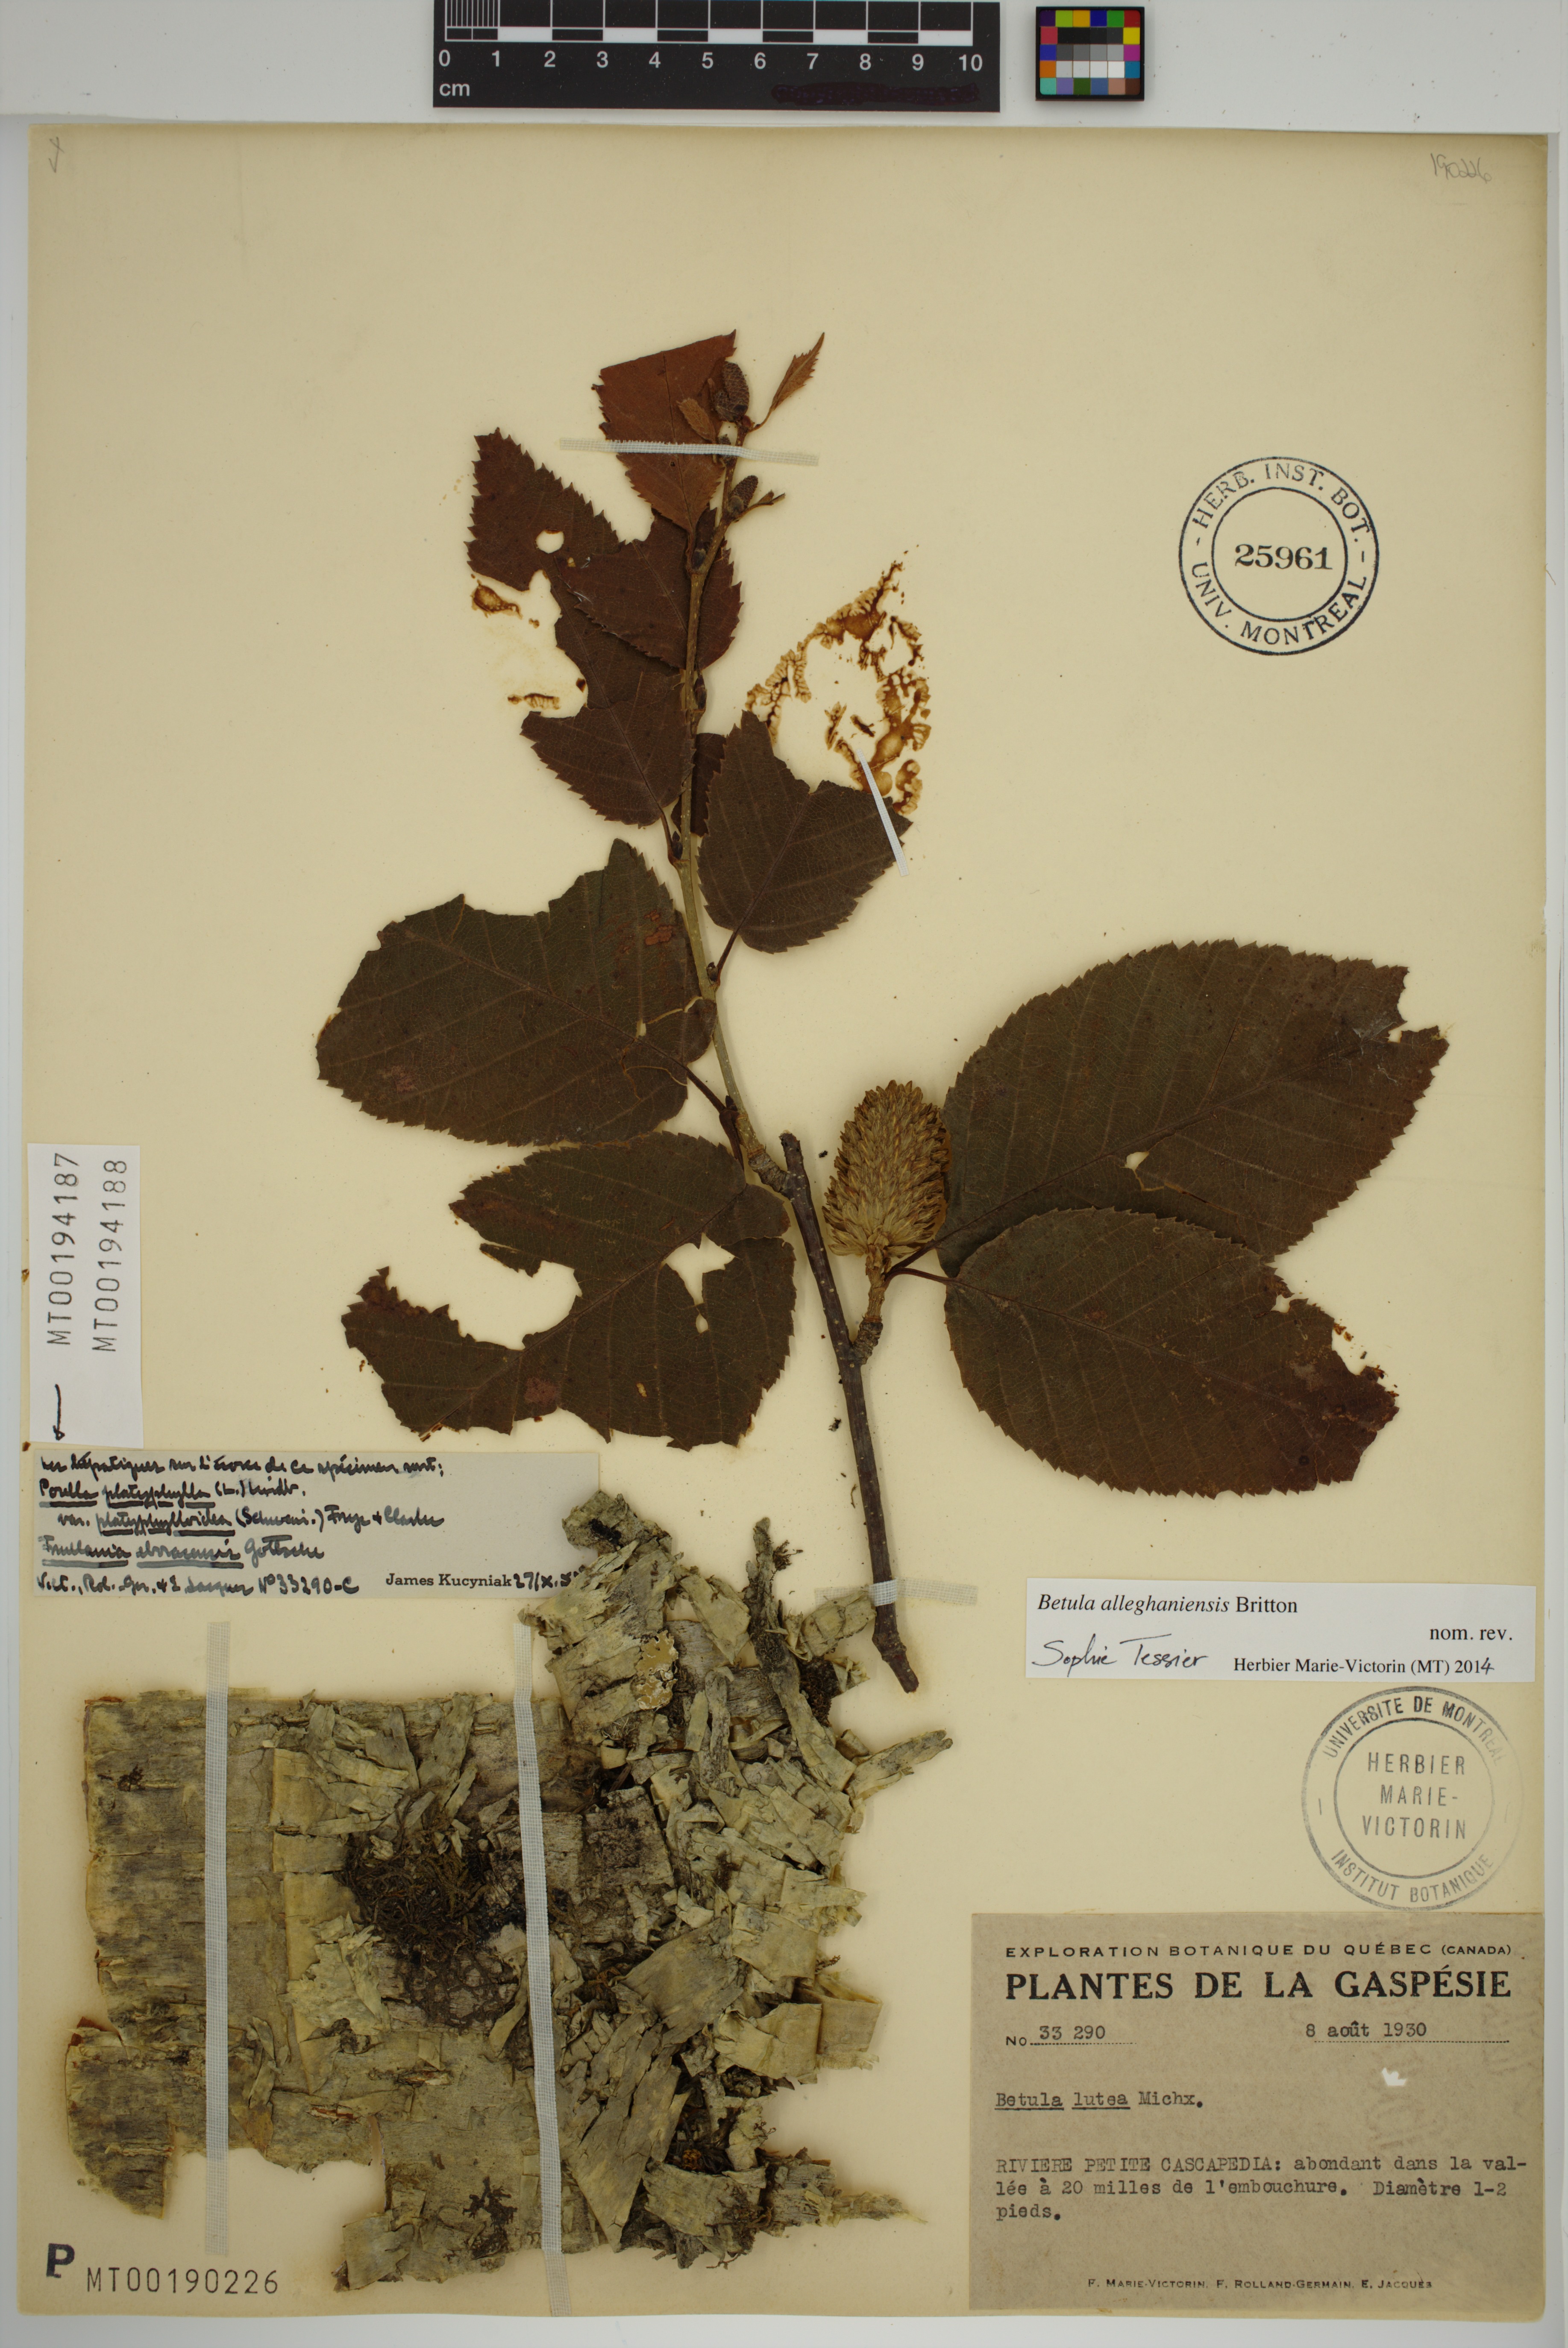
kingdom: Plantae
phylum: Marchantiophyta
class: Jungermanniopsida
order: Porellales
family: Frullaniaceae
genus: Frullania
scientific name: Frullania eboracensis
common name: New york scalewort
